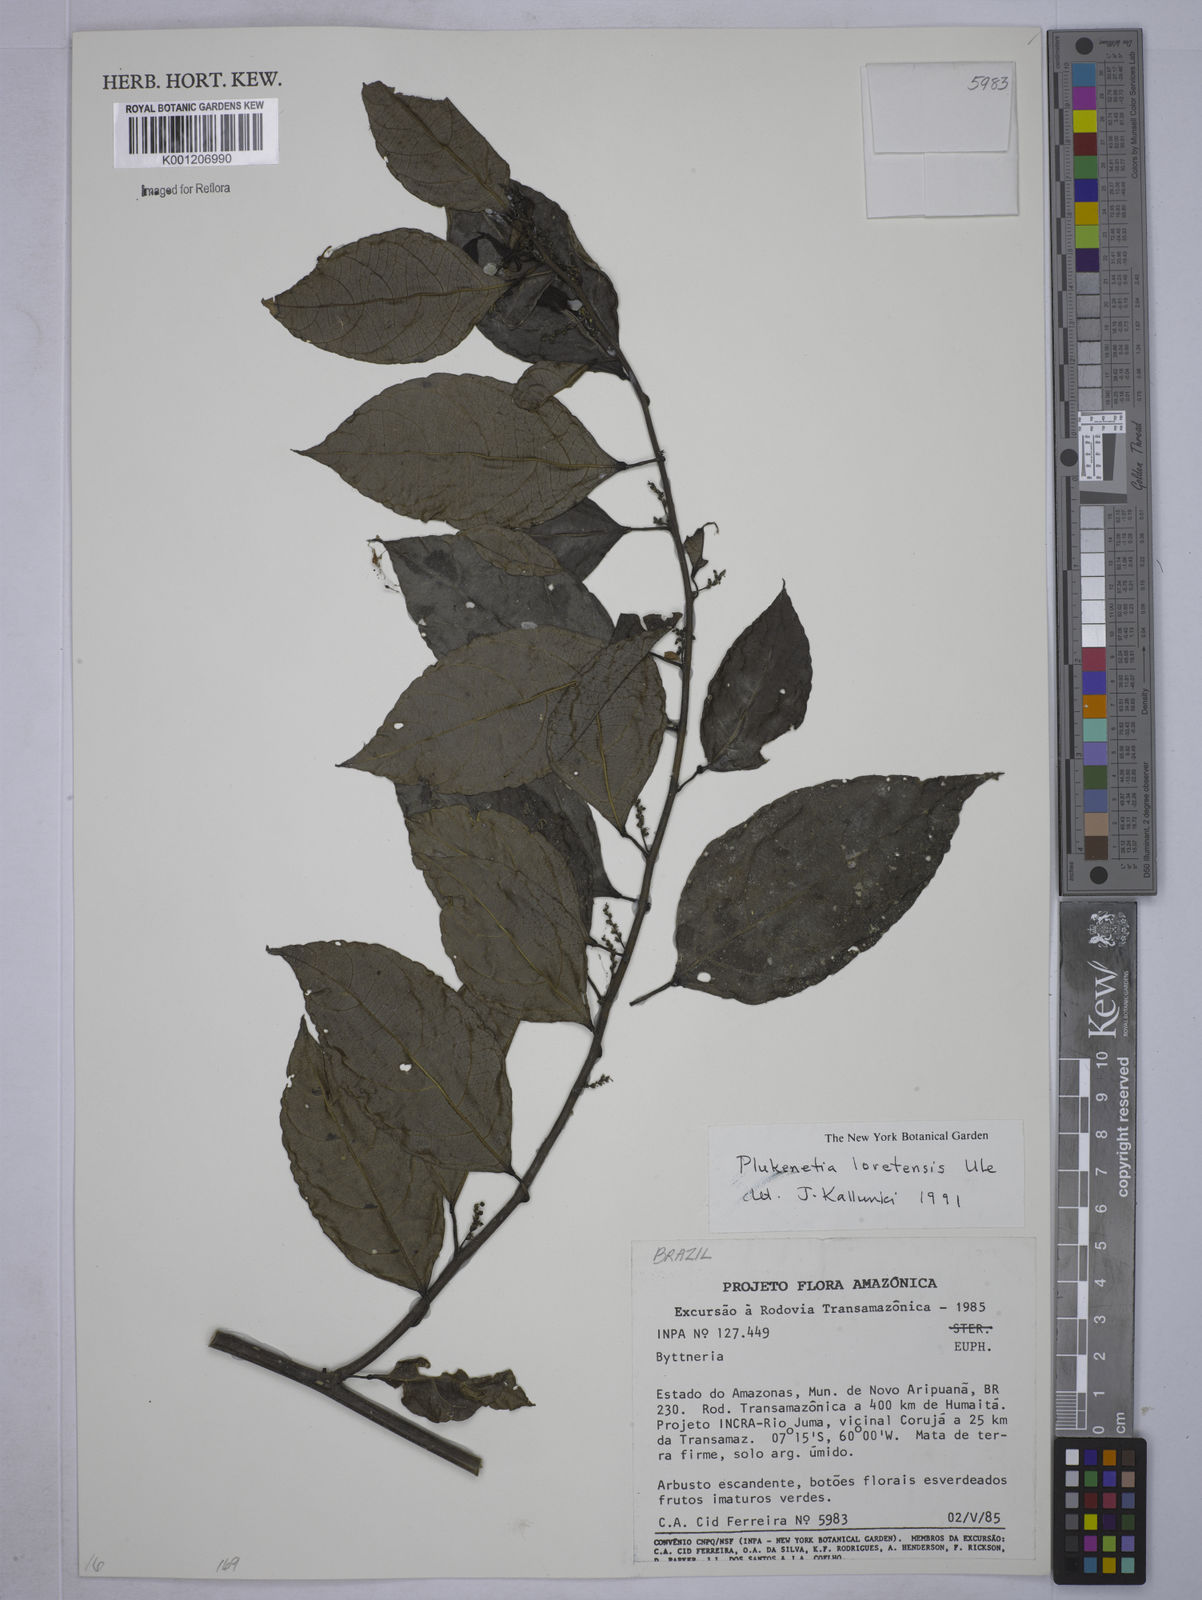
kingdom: Plantae
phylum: Tracheophyta
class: Magnoliopsida
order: Malpighiales
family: Euphorbiaceae
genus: Plukenetia
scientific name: Plukenetia loretensis
